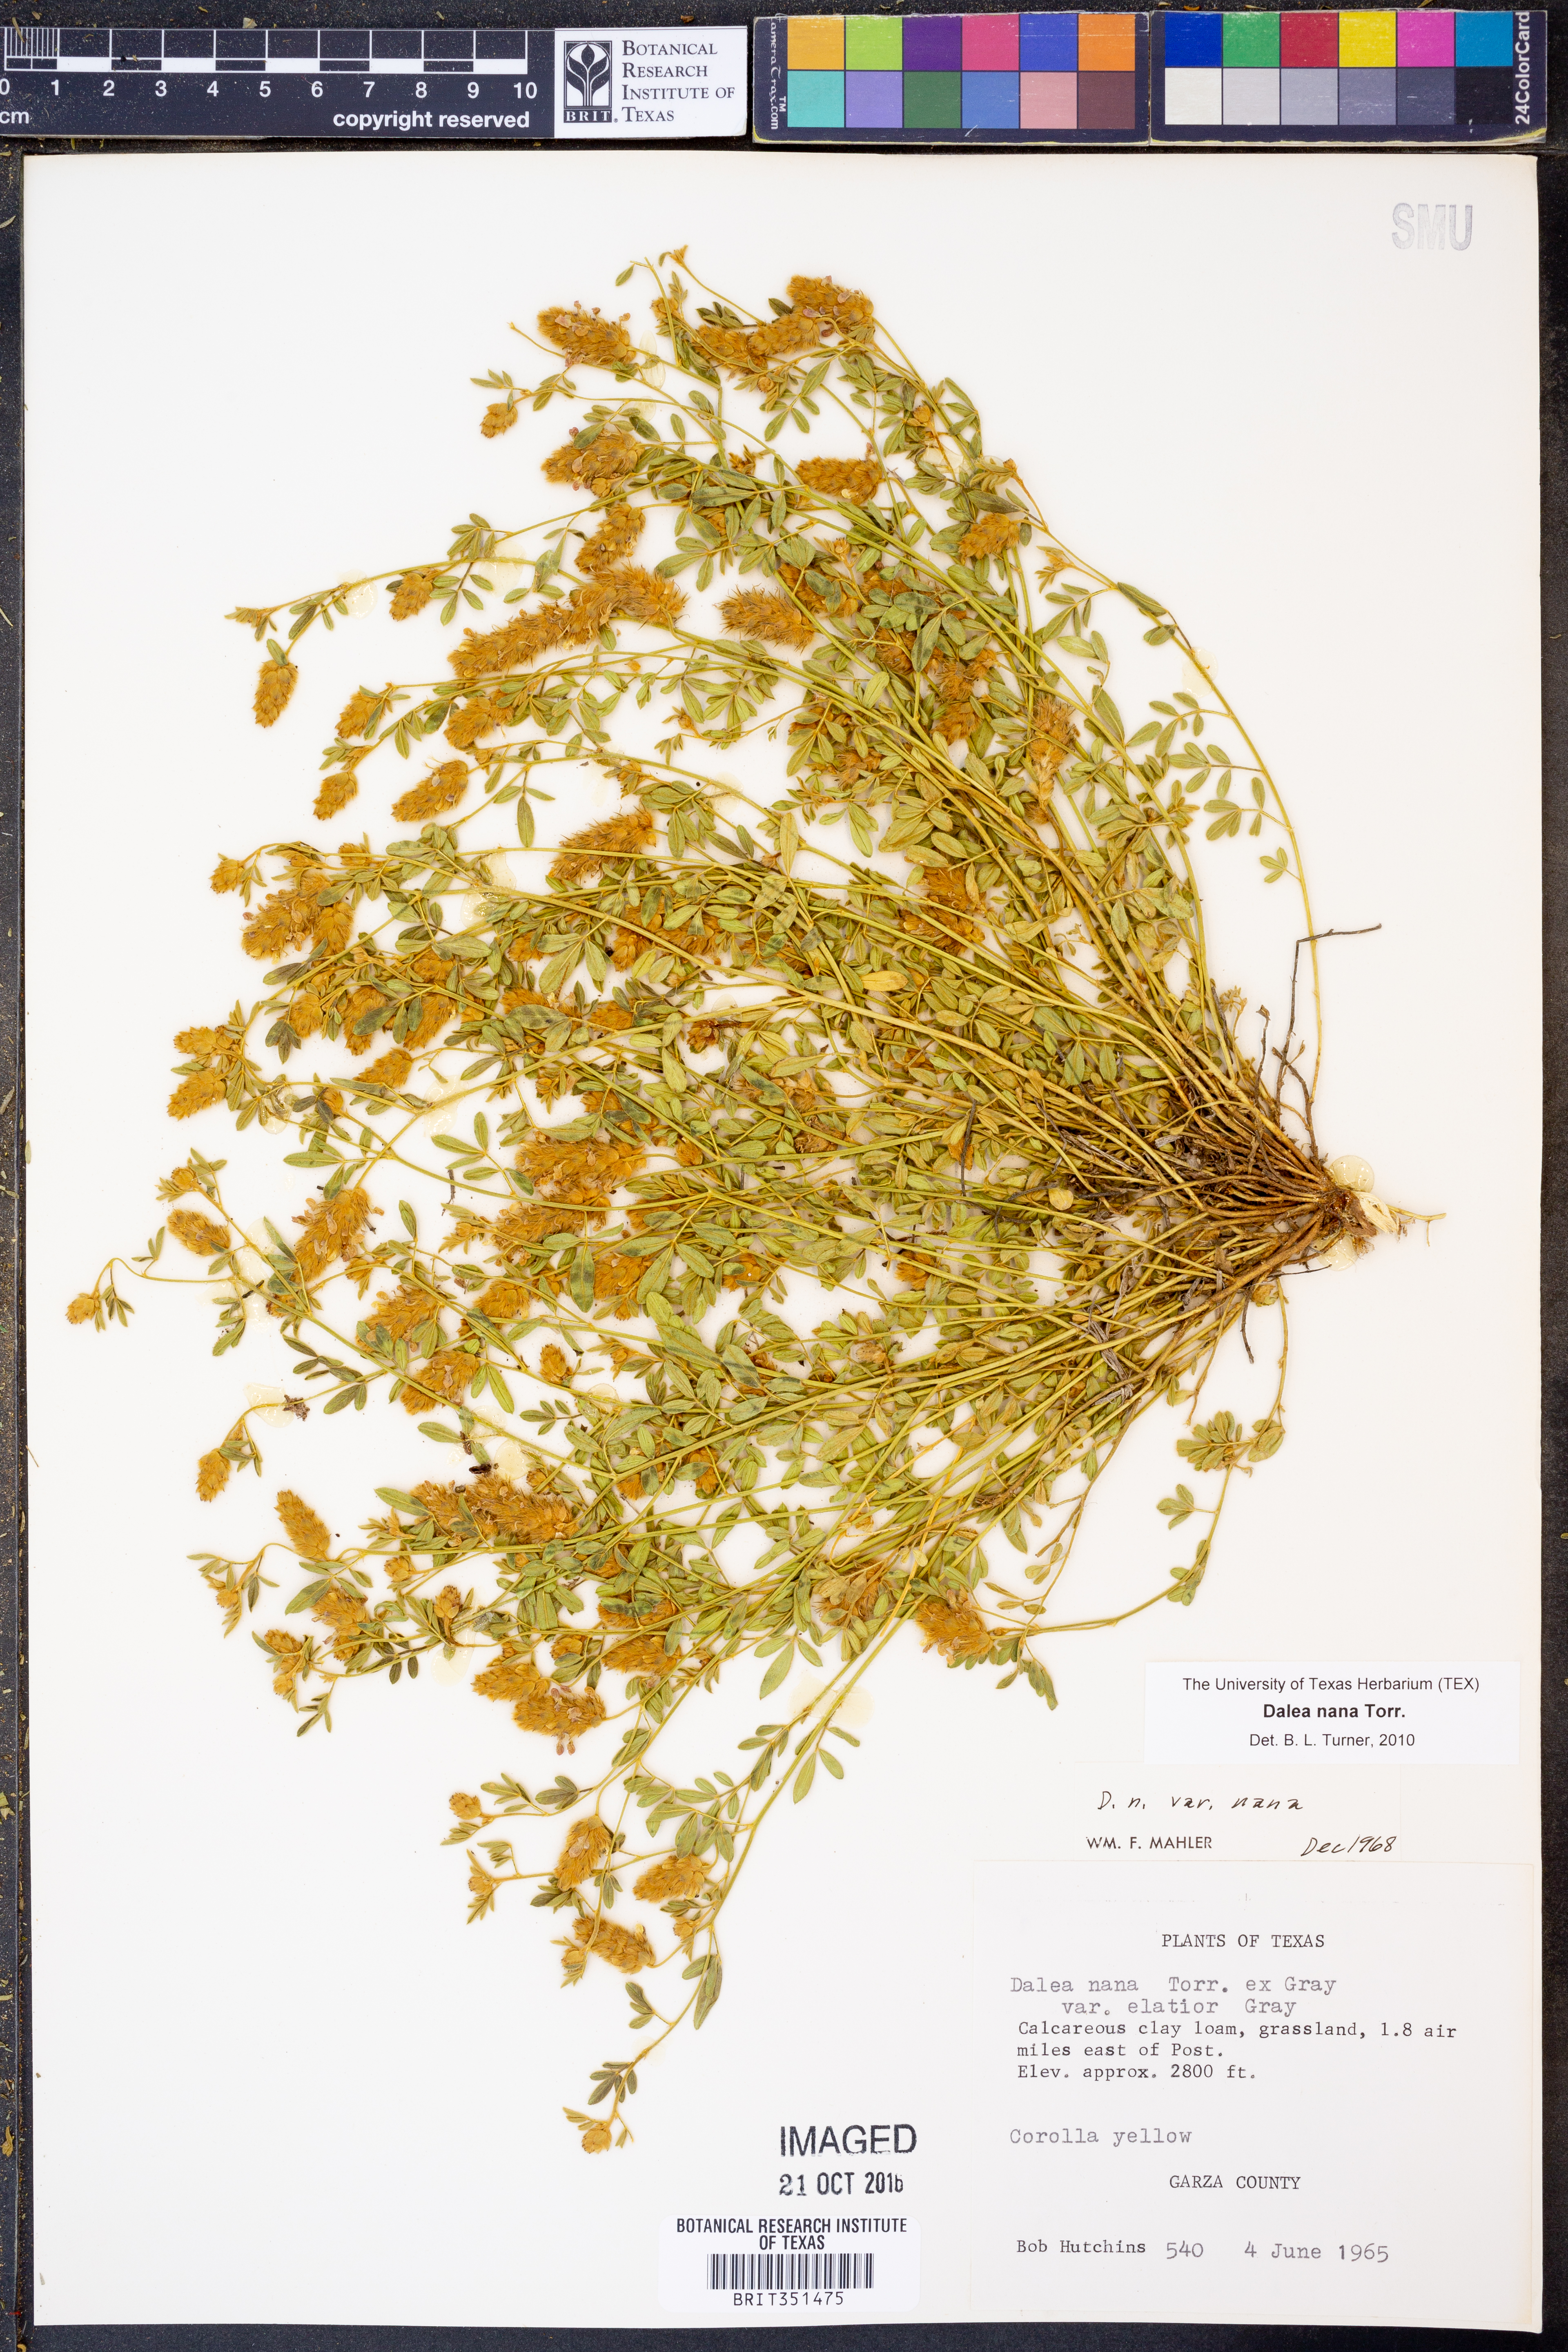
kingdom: Plantae
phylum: Tracheophyta
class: Magnoliopsida
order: Fabales
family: Fabaceae
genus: Dalea
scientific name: Dalea nana
